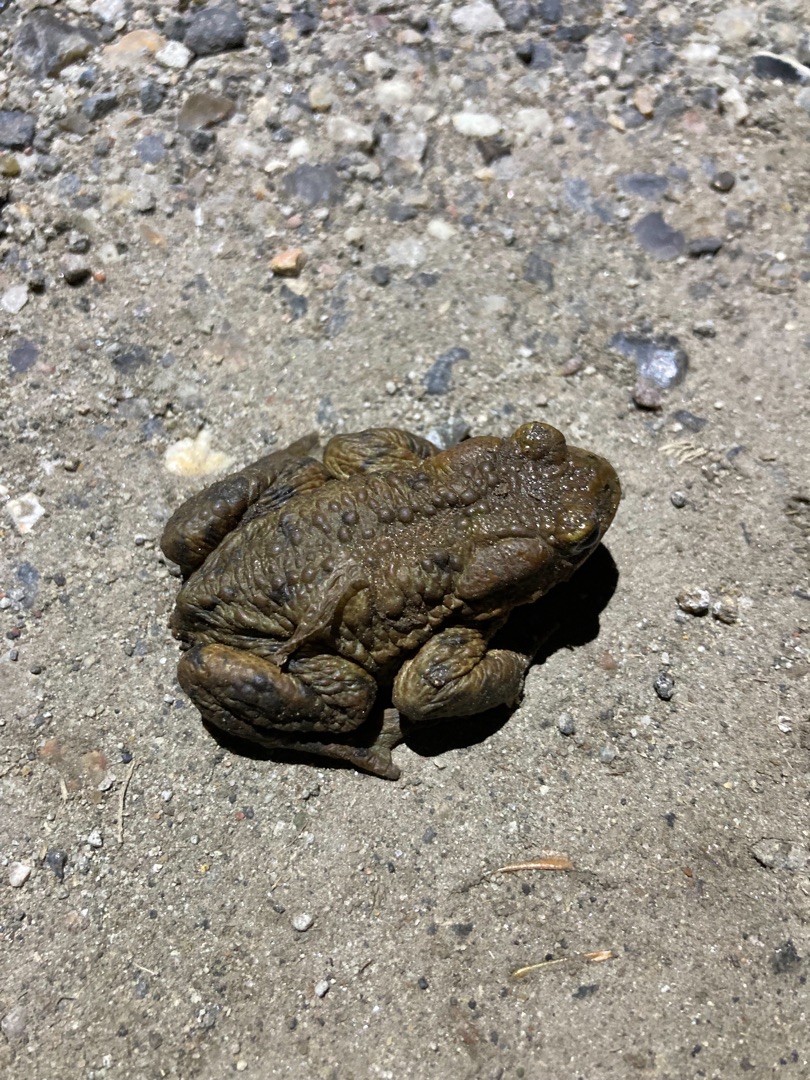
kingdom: Animalia
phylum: Chordata
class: Amphibia
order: Anura
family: Bufonidae
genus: Bufo
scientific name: Bufo bufo
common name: Skrubtudse
